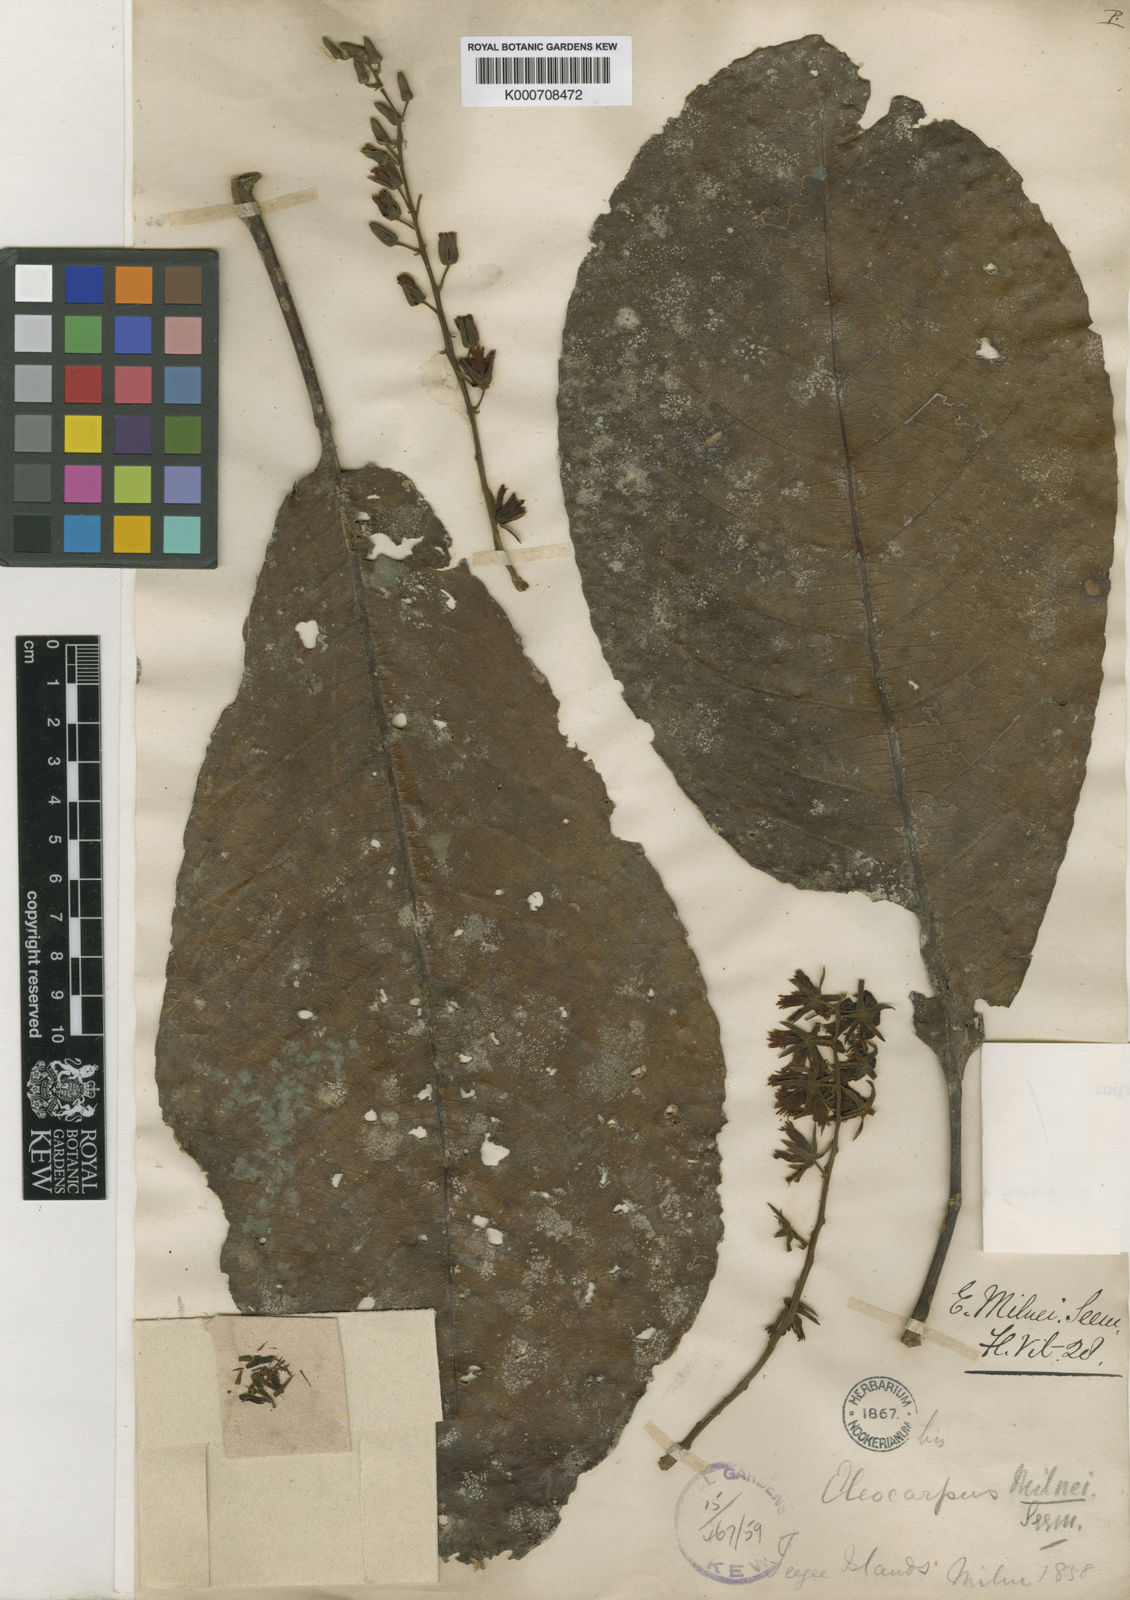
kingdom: Plantae
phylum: Tracheophyta
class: Magnoliopsida
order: Oxalidales
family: Elaeocarpaceae
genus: Elaeocarpus
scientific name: Elaeocarpus milnei
